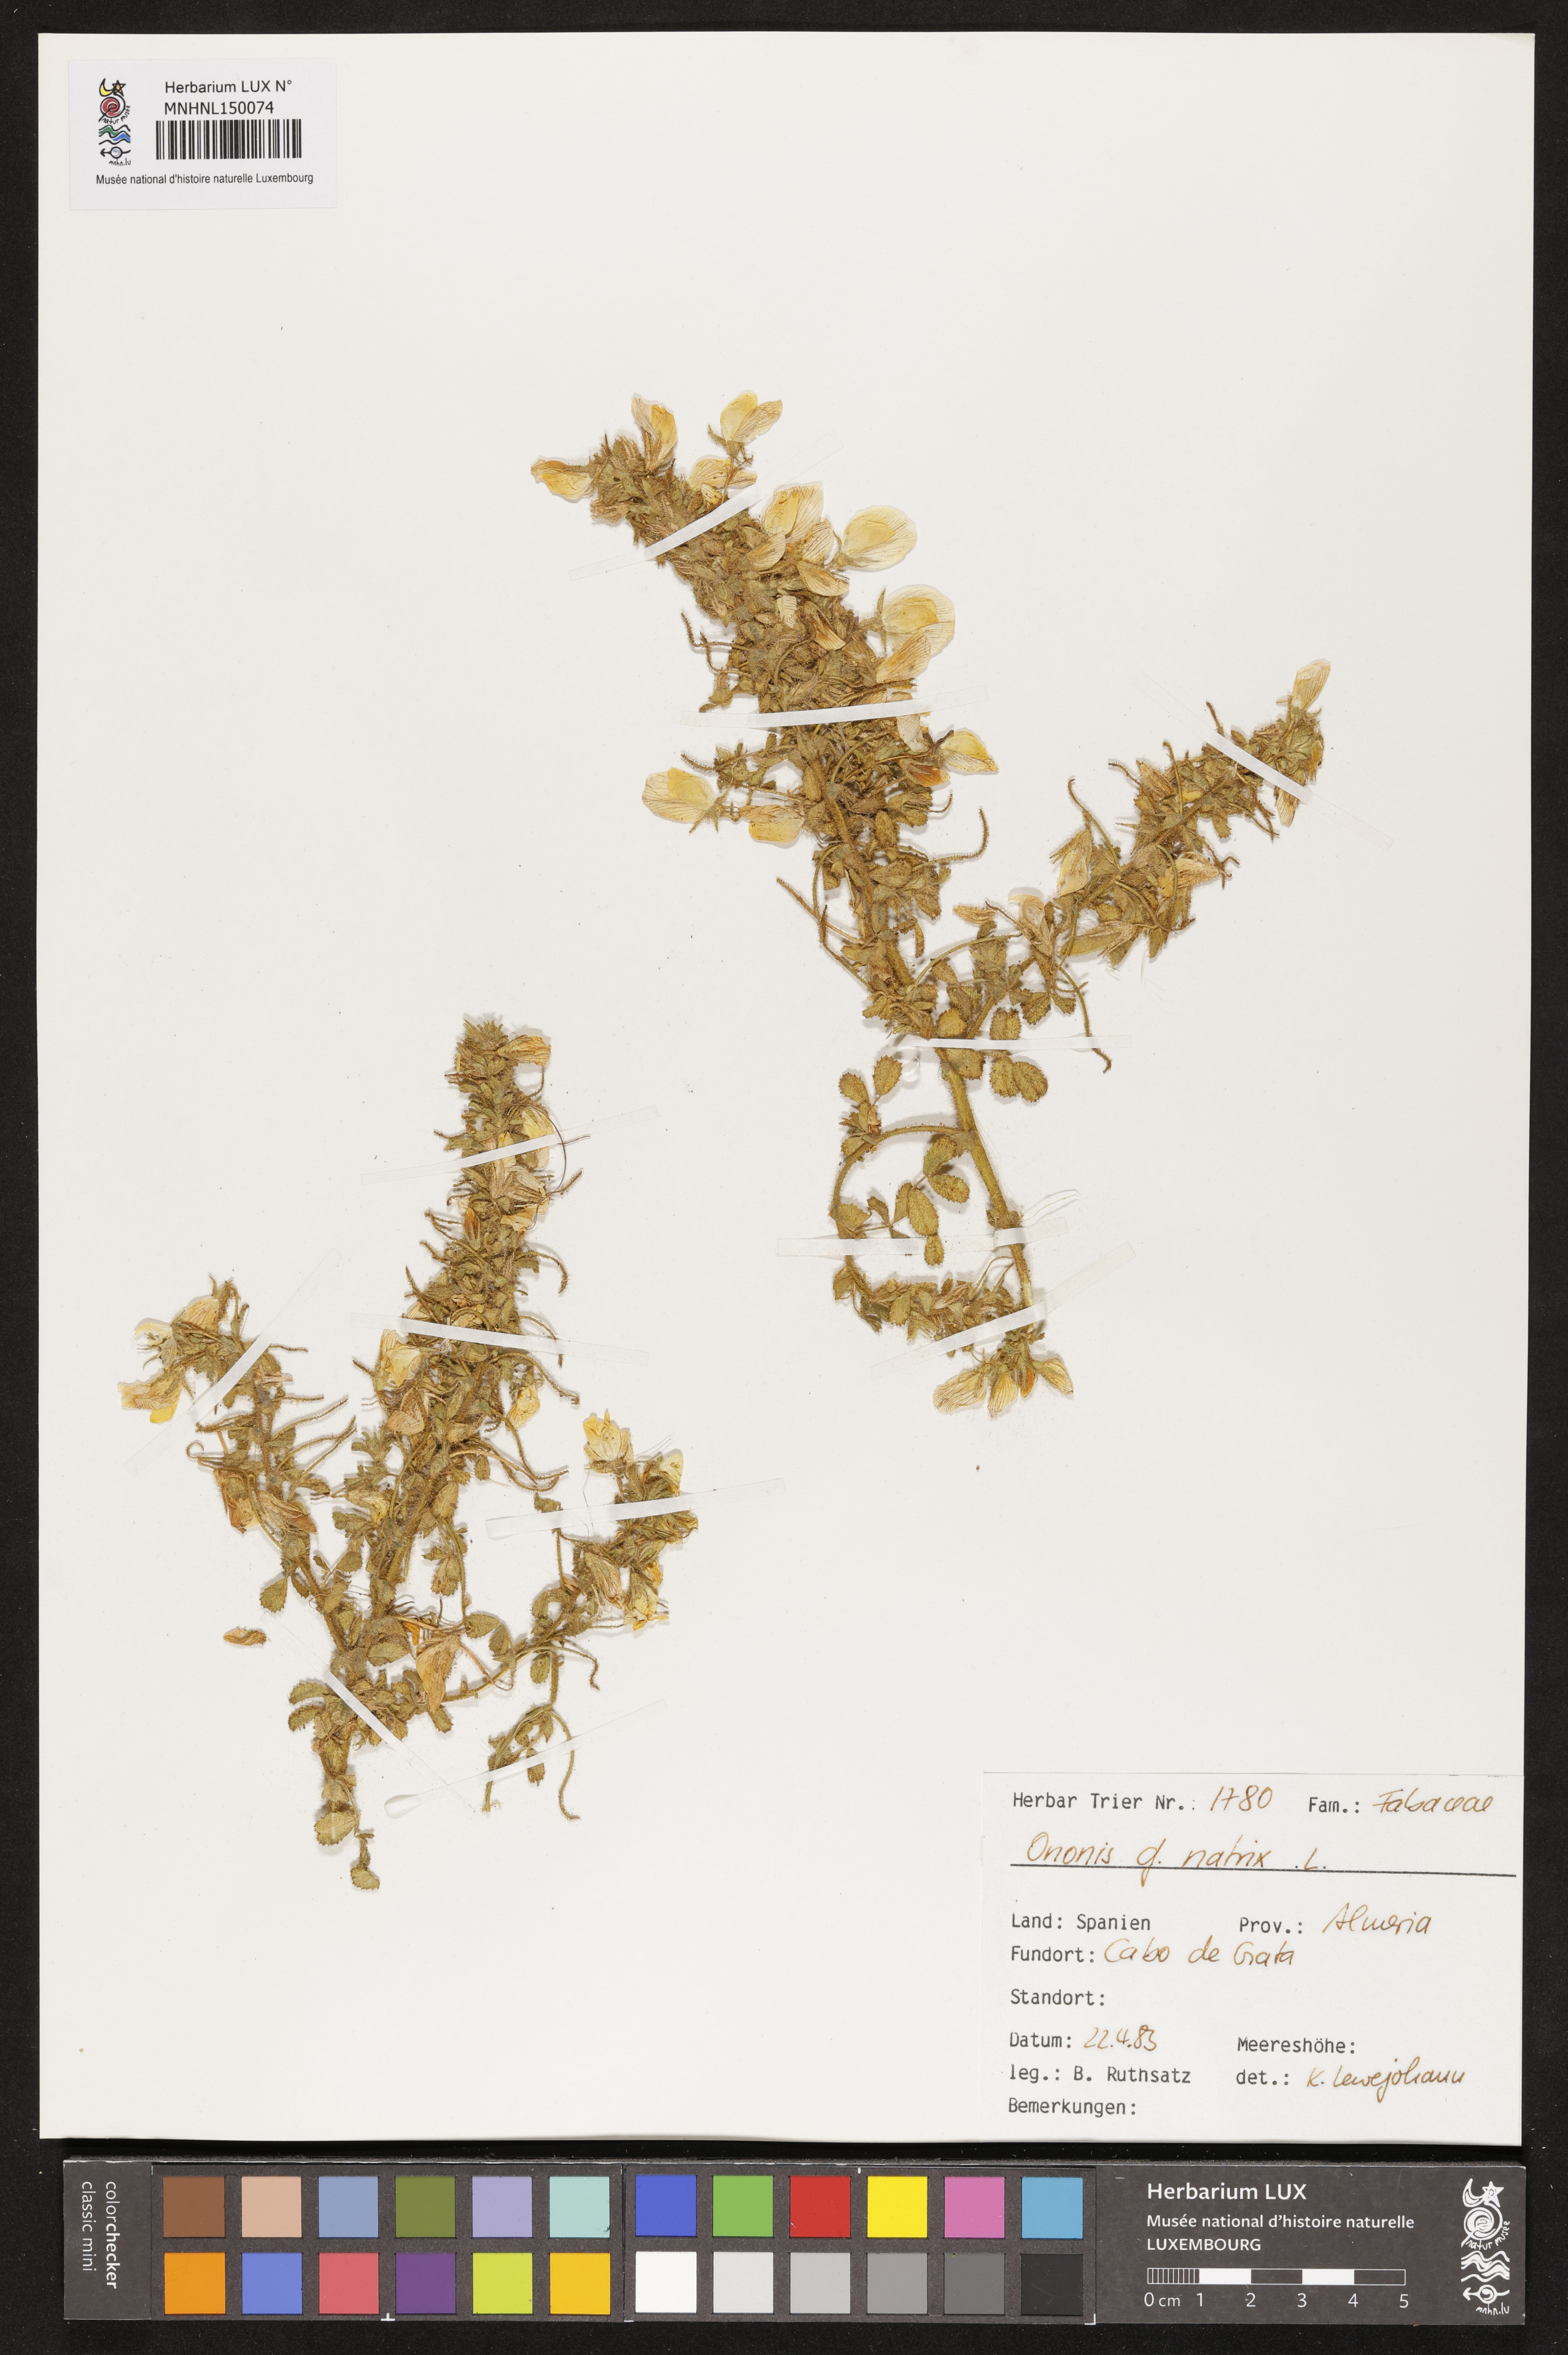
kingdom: Plantae
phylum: Tracheophyta
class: Magnoliopsida
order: Fabales
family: Fabaceae
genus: Ononis
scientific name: Ononis natrix
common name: Yellow restharrow
